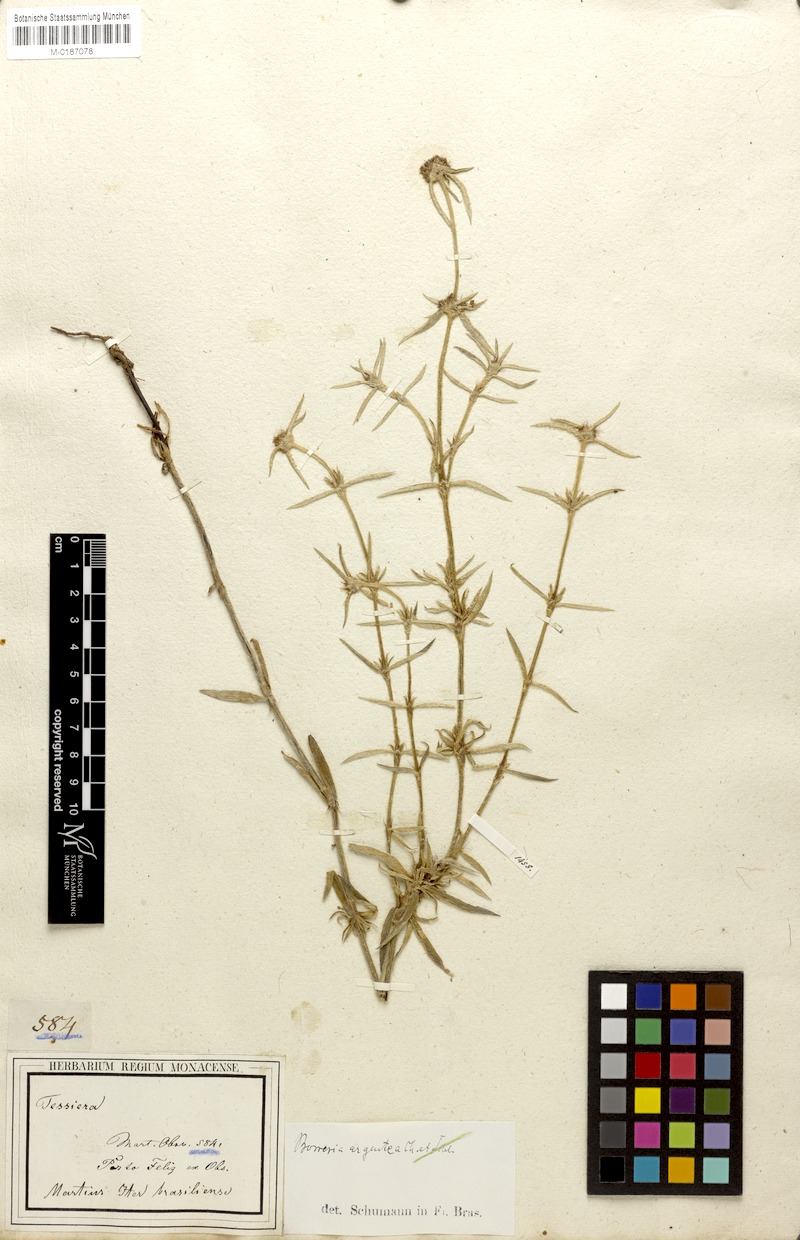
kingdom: Plantae
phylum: Tracheophyta
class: Magnoliopsida
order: Gentianales
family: Rubiaceae
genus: Spermacoce
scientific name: Spermacoce argentea
